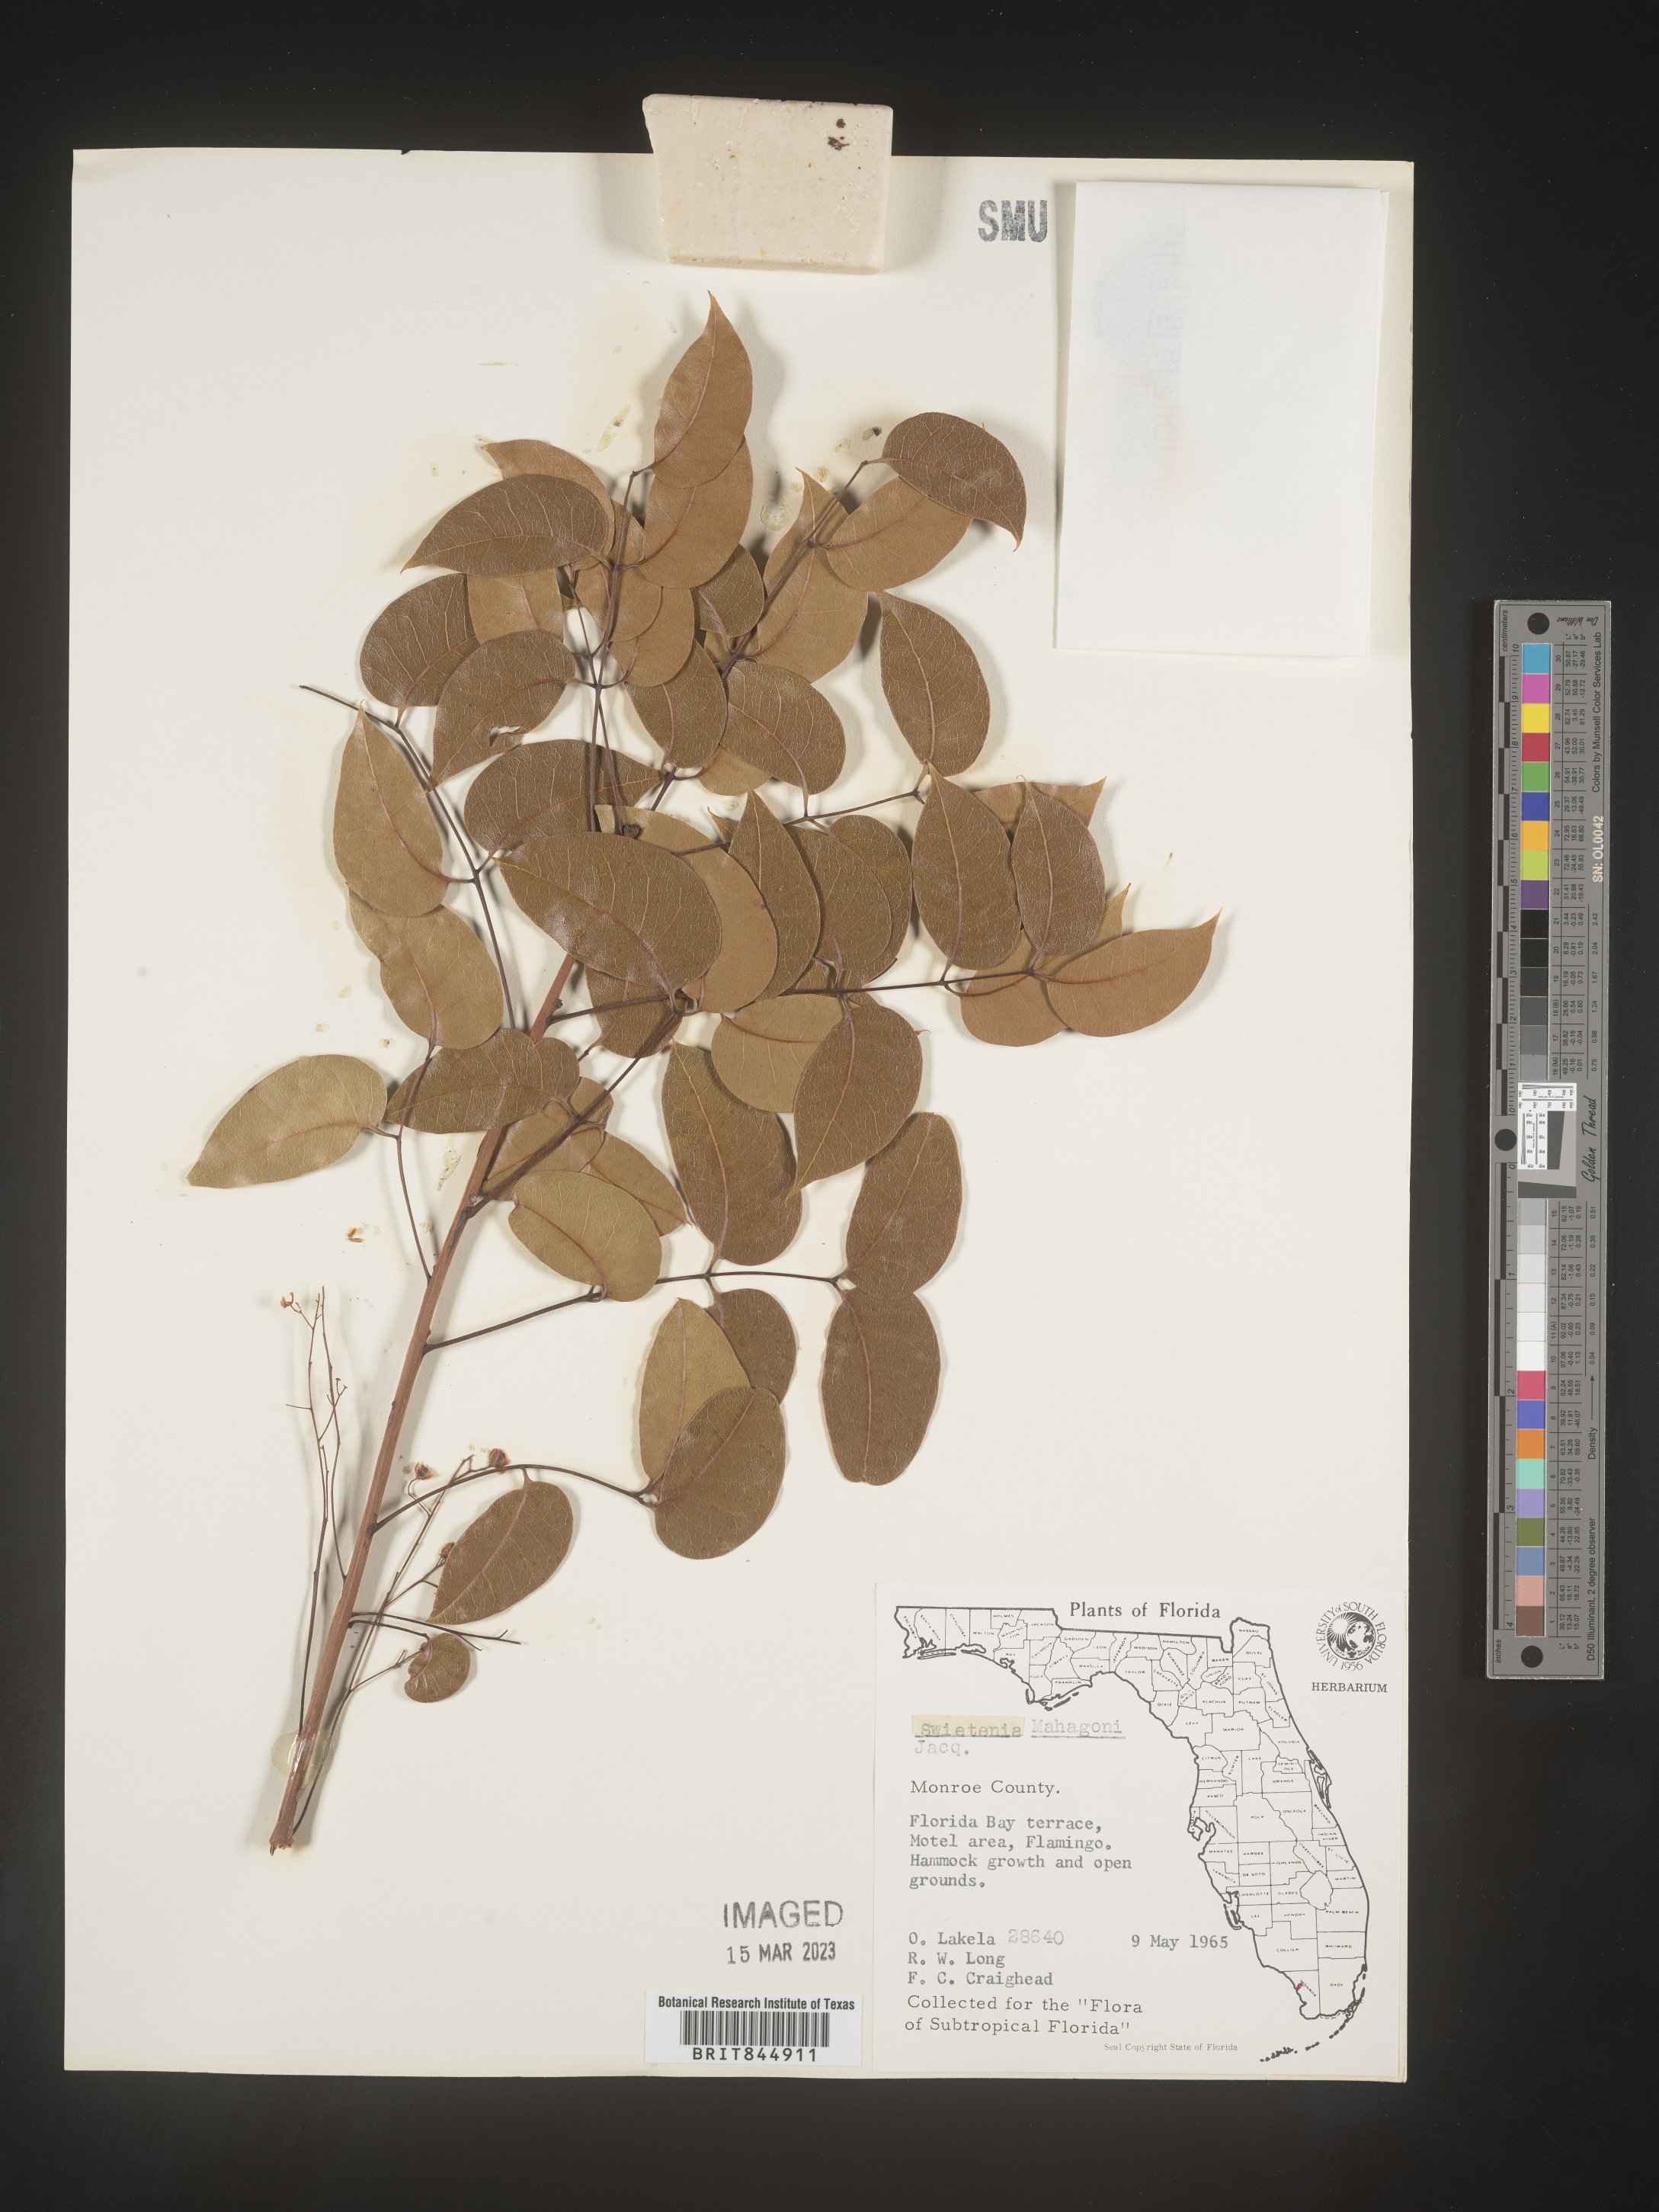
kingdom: Plantae
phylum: Tracheophyta
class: Magnoliopsida
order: Sapindales
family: Meliaceae
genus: Swietenia
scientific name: Swietenia
